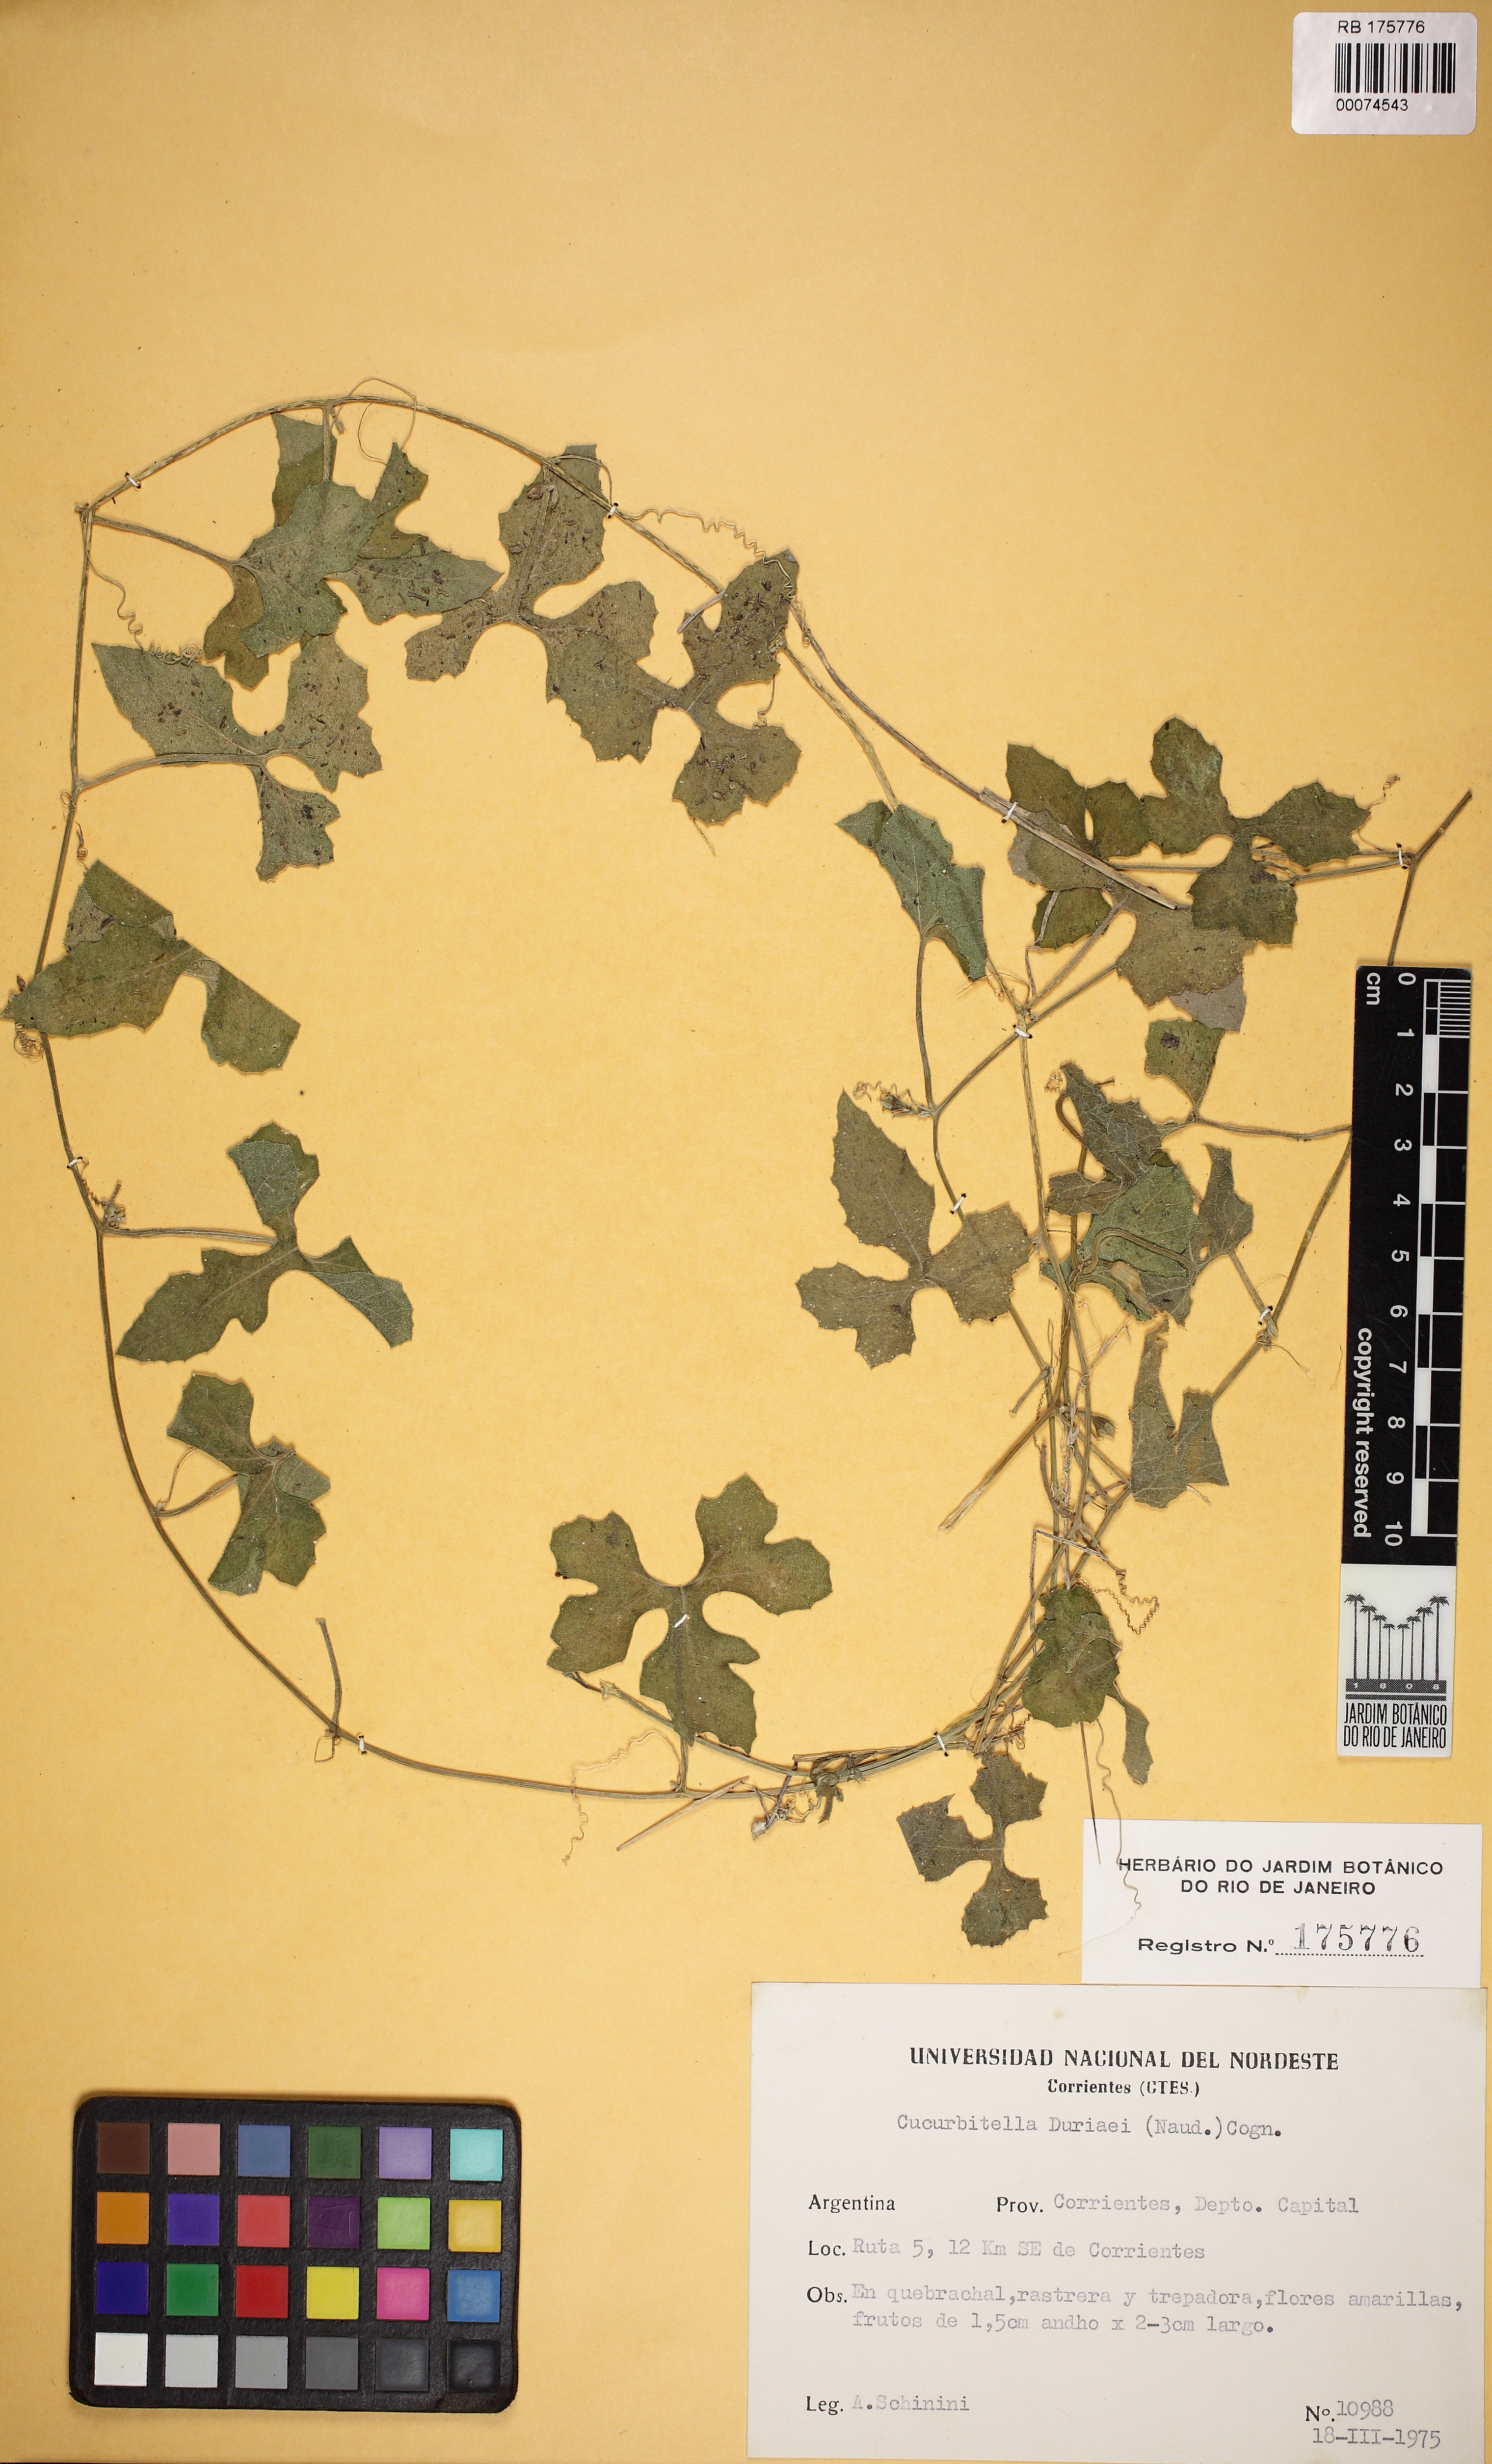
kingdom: Plantae
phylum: Tracheophyta
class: Magnoliopsida
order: Cucurbitales
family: Cucurbitaceae
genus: Cucurbitella
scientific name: Cucurbitella asperata
